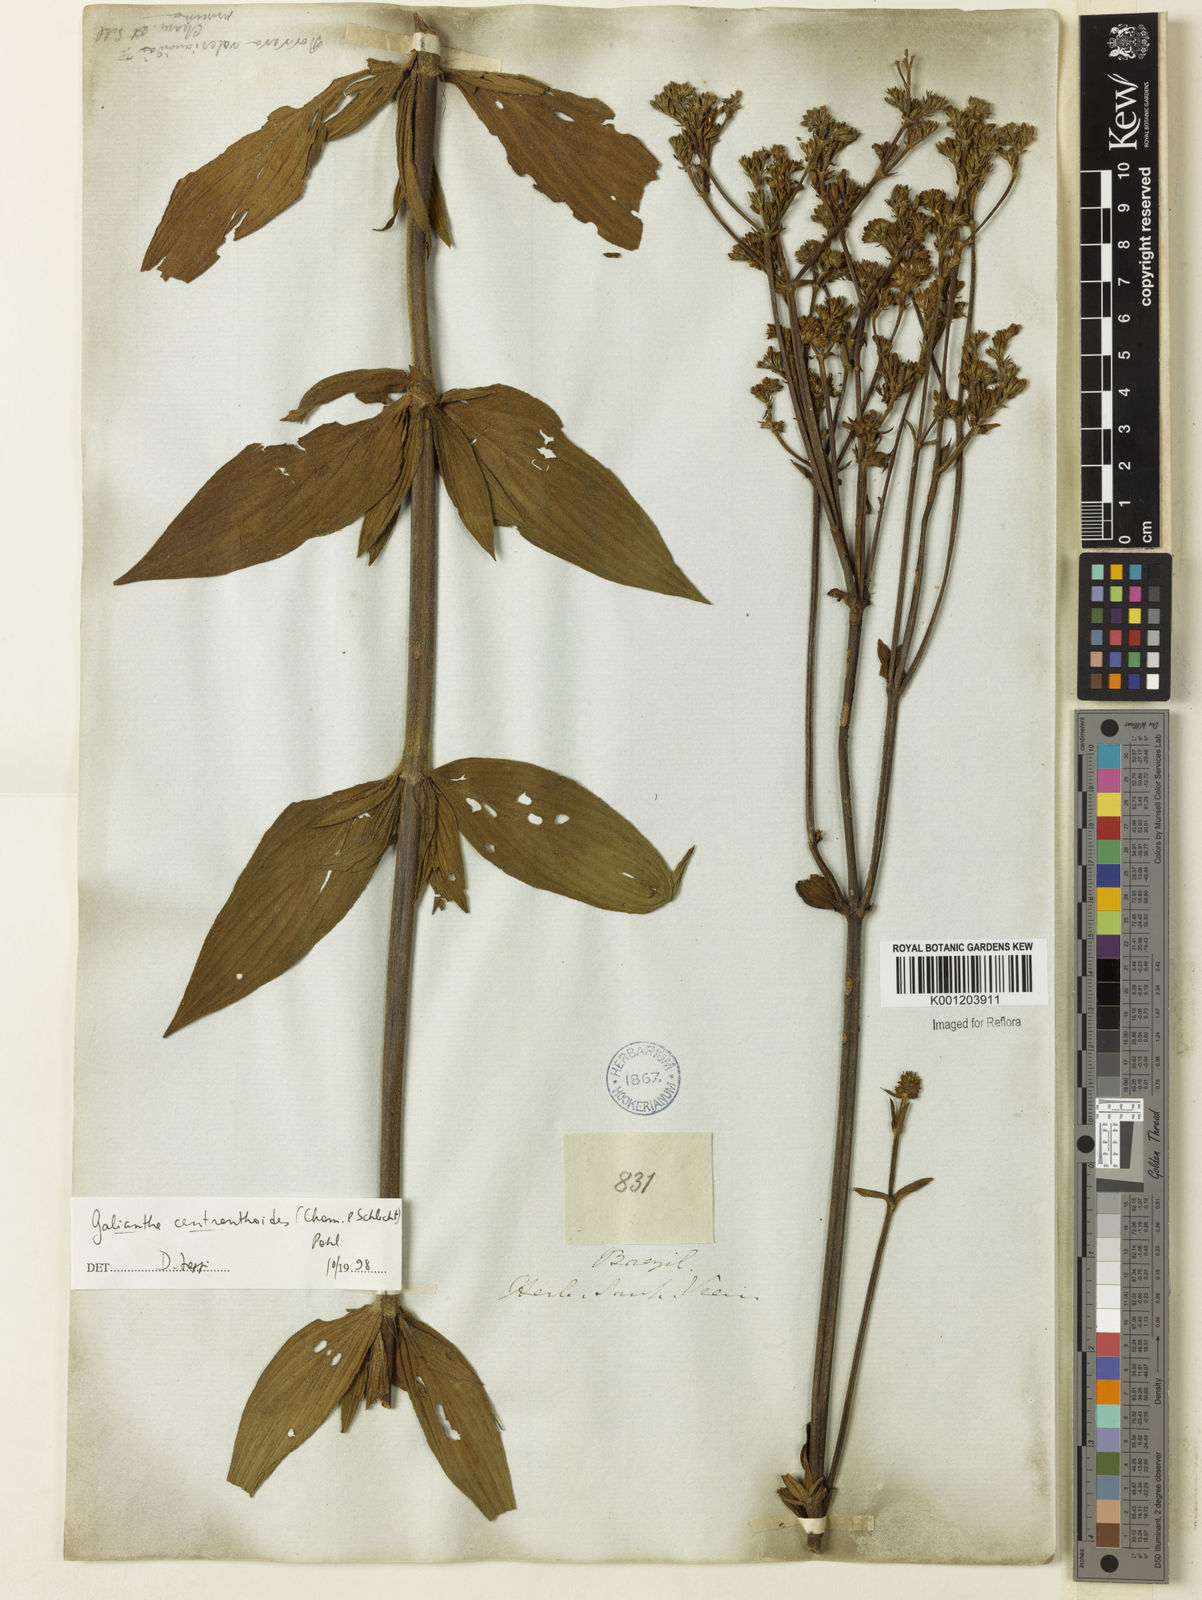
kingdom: Plantae
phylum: Tracheophyta
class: Magnoliopsida
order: Gentianales
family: Rubiaceae
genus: Galianthe
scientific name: Galianthe centranthoides
